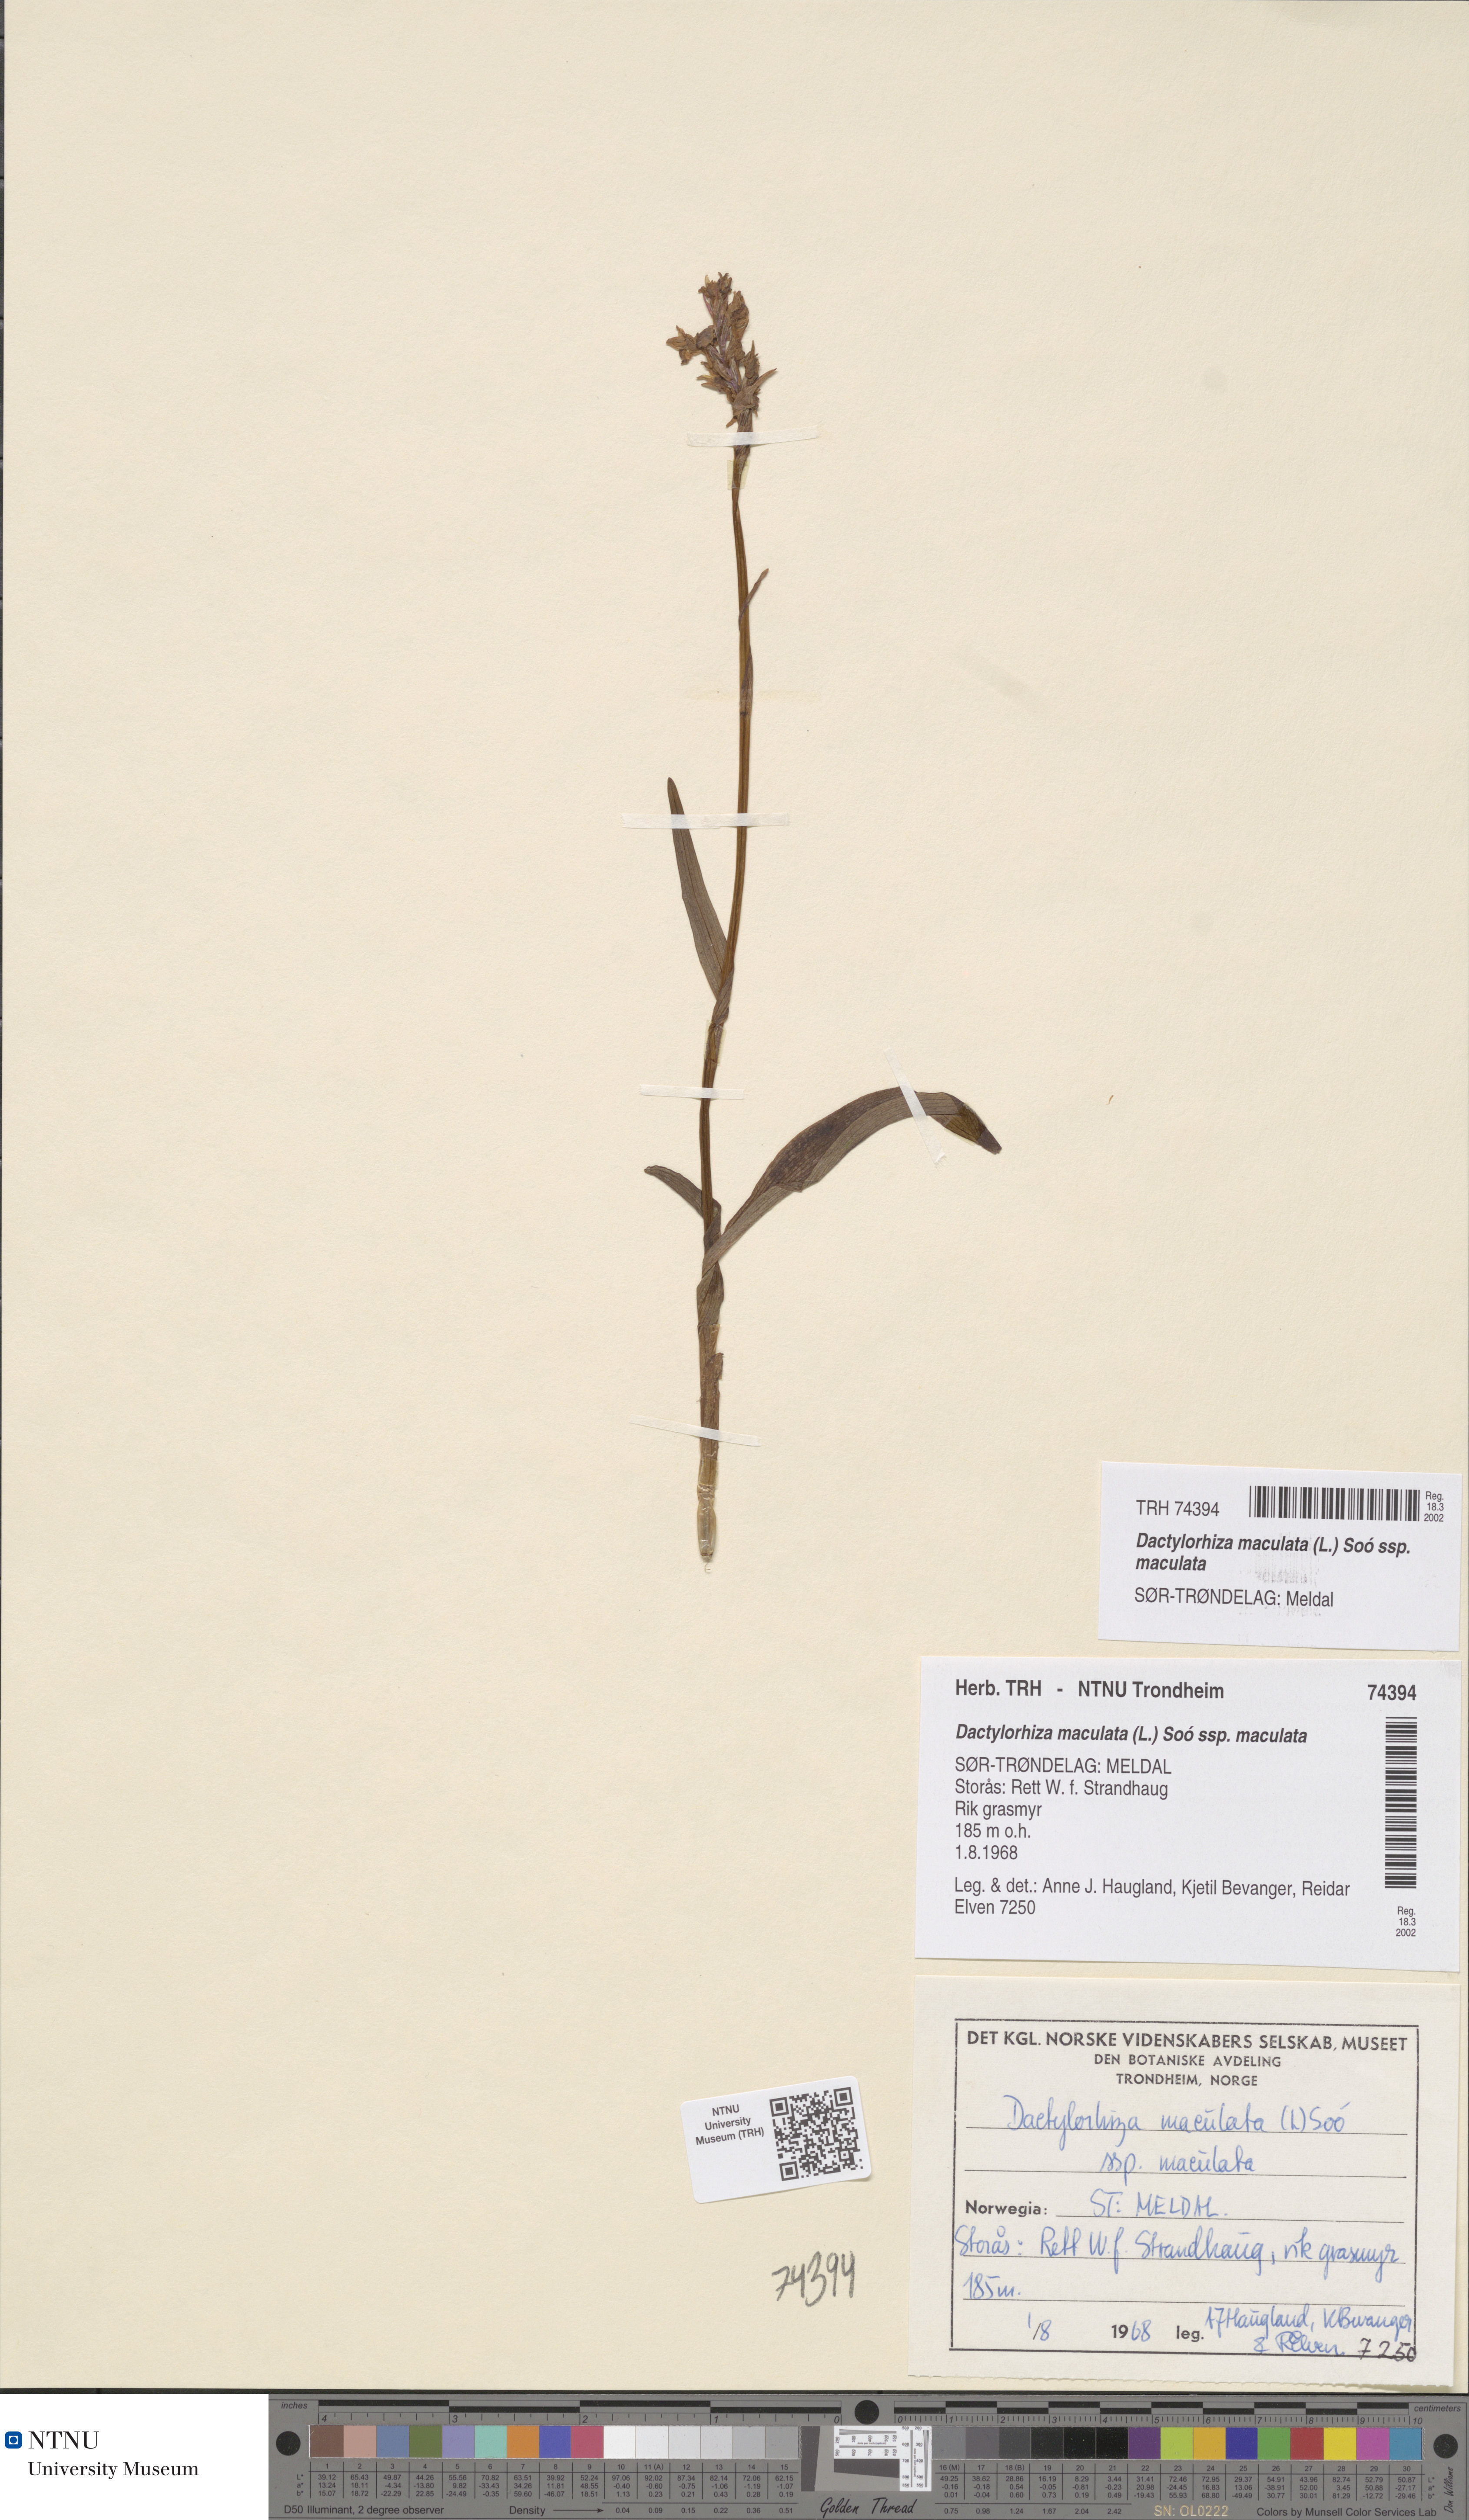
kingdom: Plantae
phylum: Tracheophyta
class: Liliopsida
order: Asparagales
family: Orchidaceae
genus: Dactylorhiza
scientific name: Dactylorhiza maculata
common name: Heath spotted-orchid
